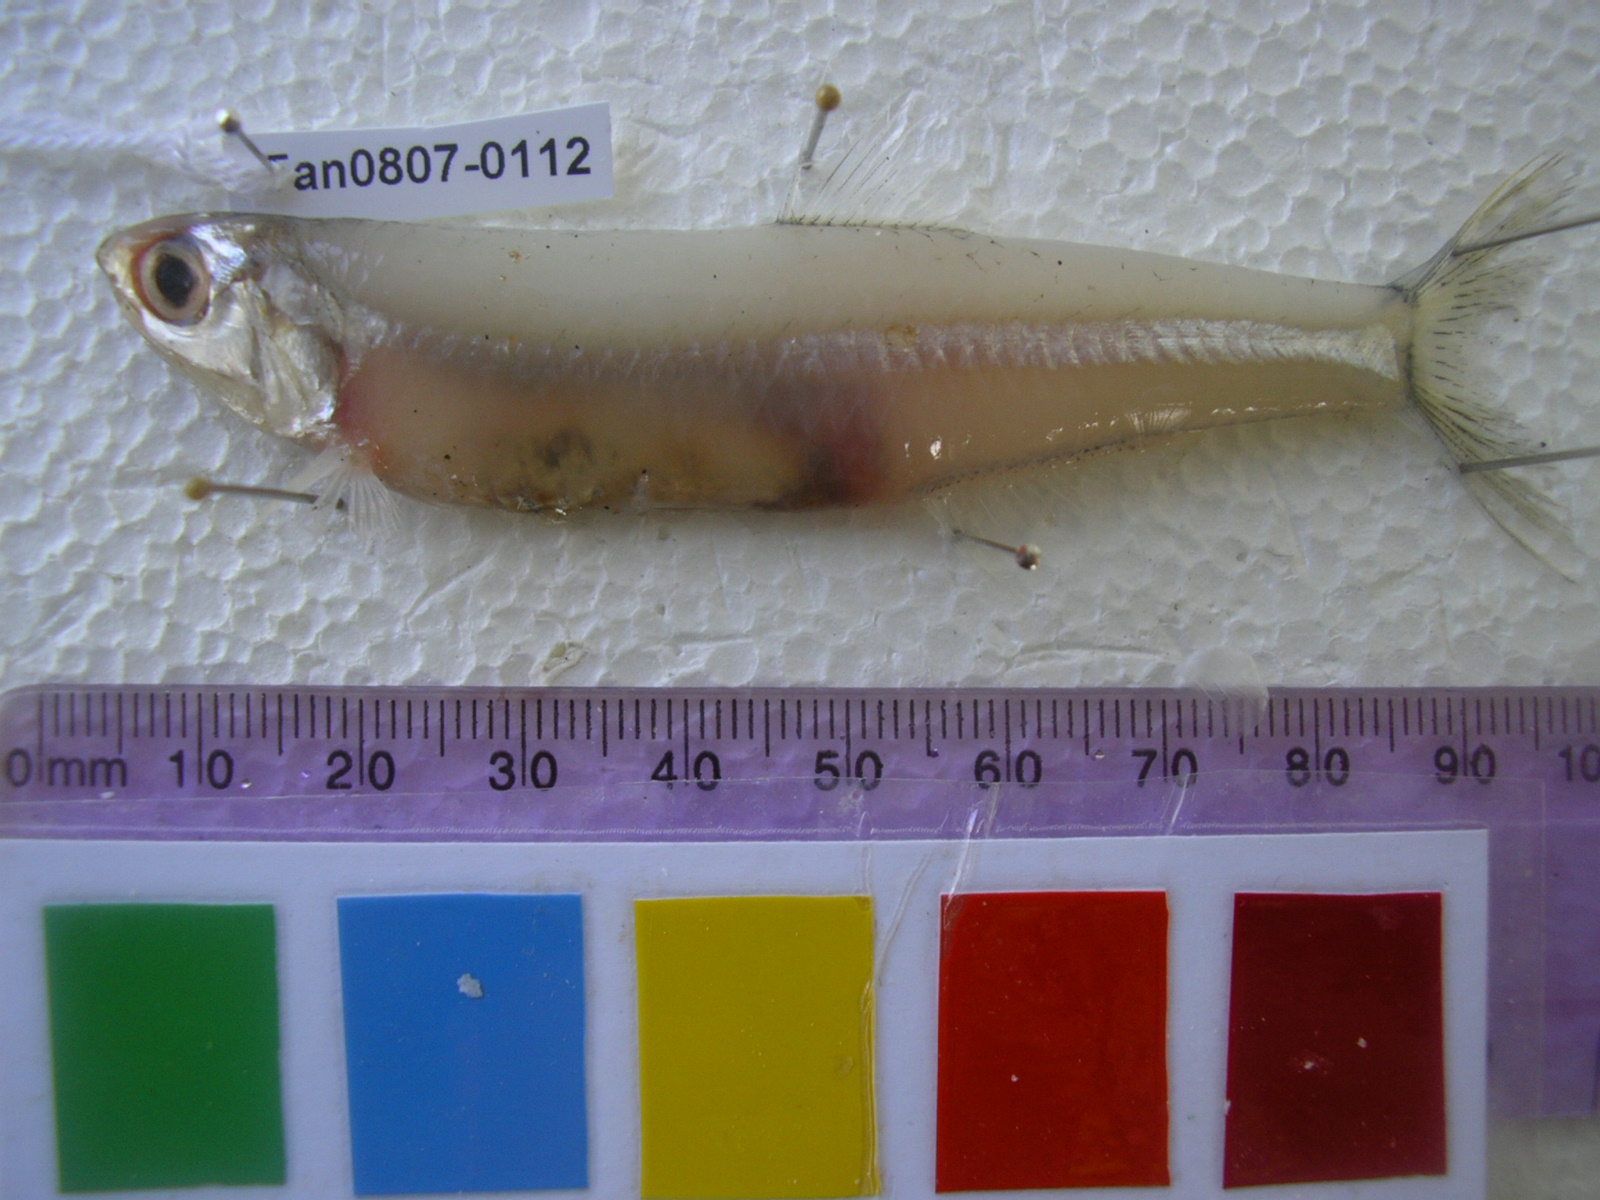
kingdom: Animalia
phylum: Chordata
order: Clupeiformes
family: Engraulidae
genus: Encrasicholina
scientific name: Encrasicholina punctifer
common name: Buccaneer anchovy
